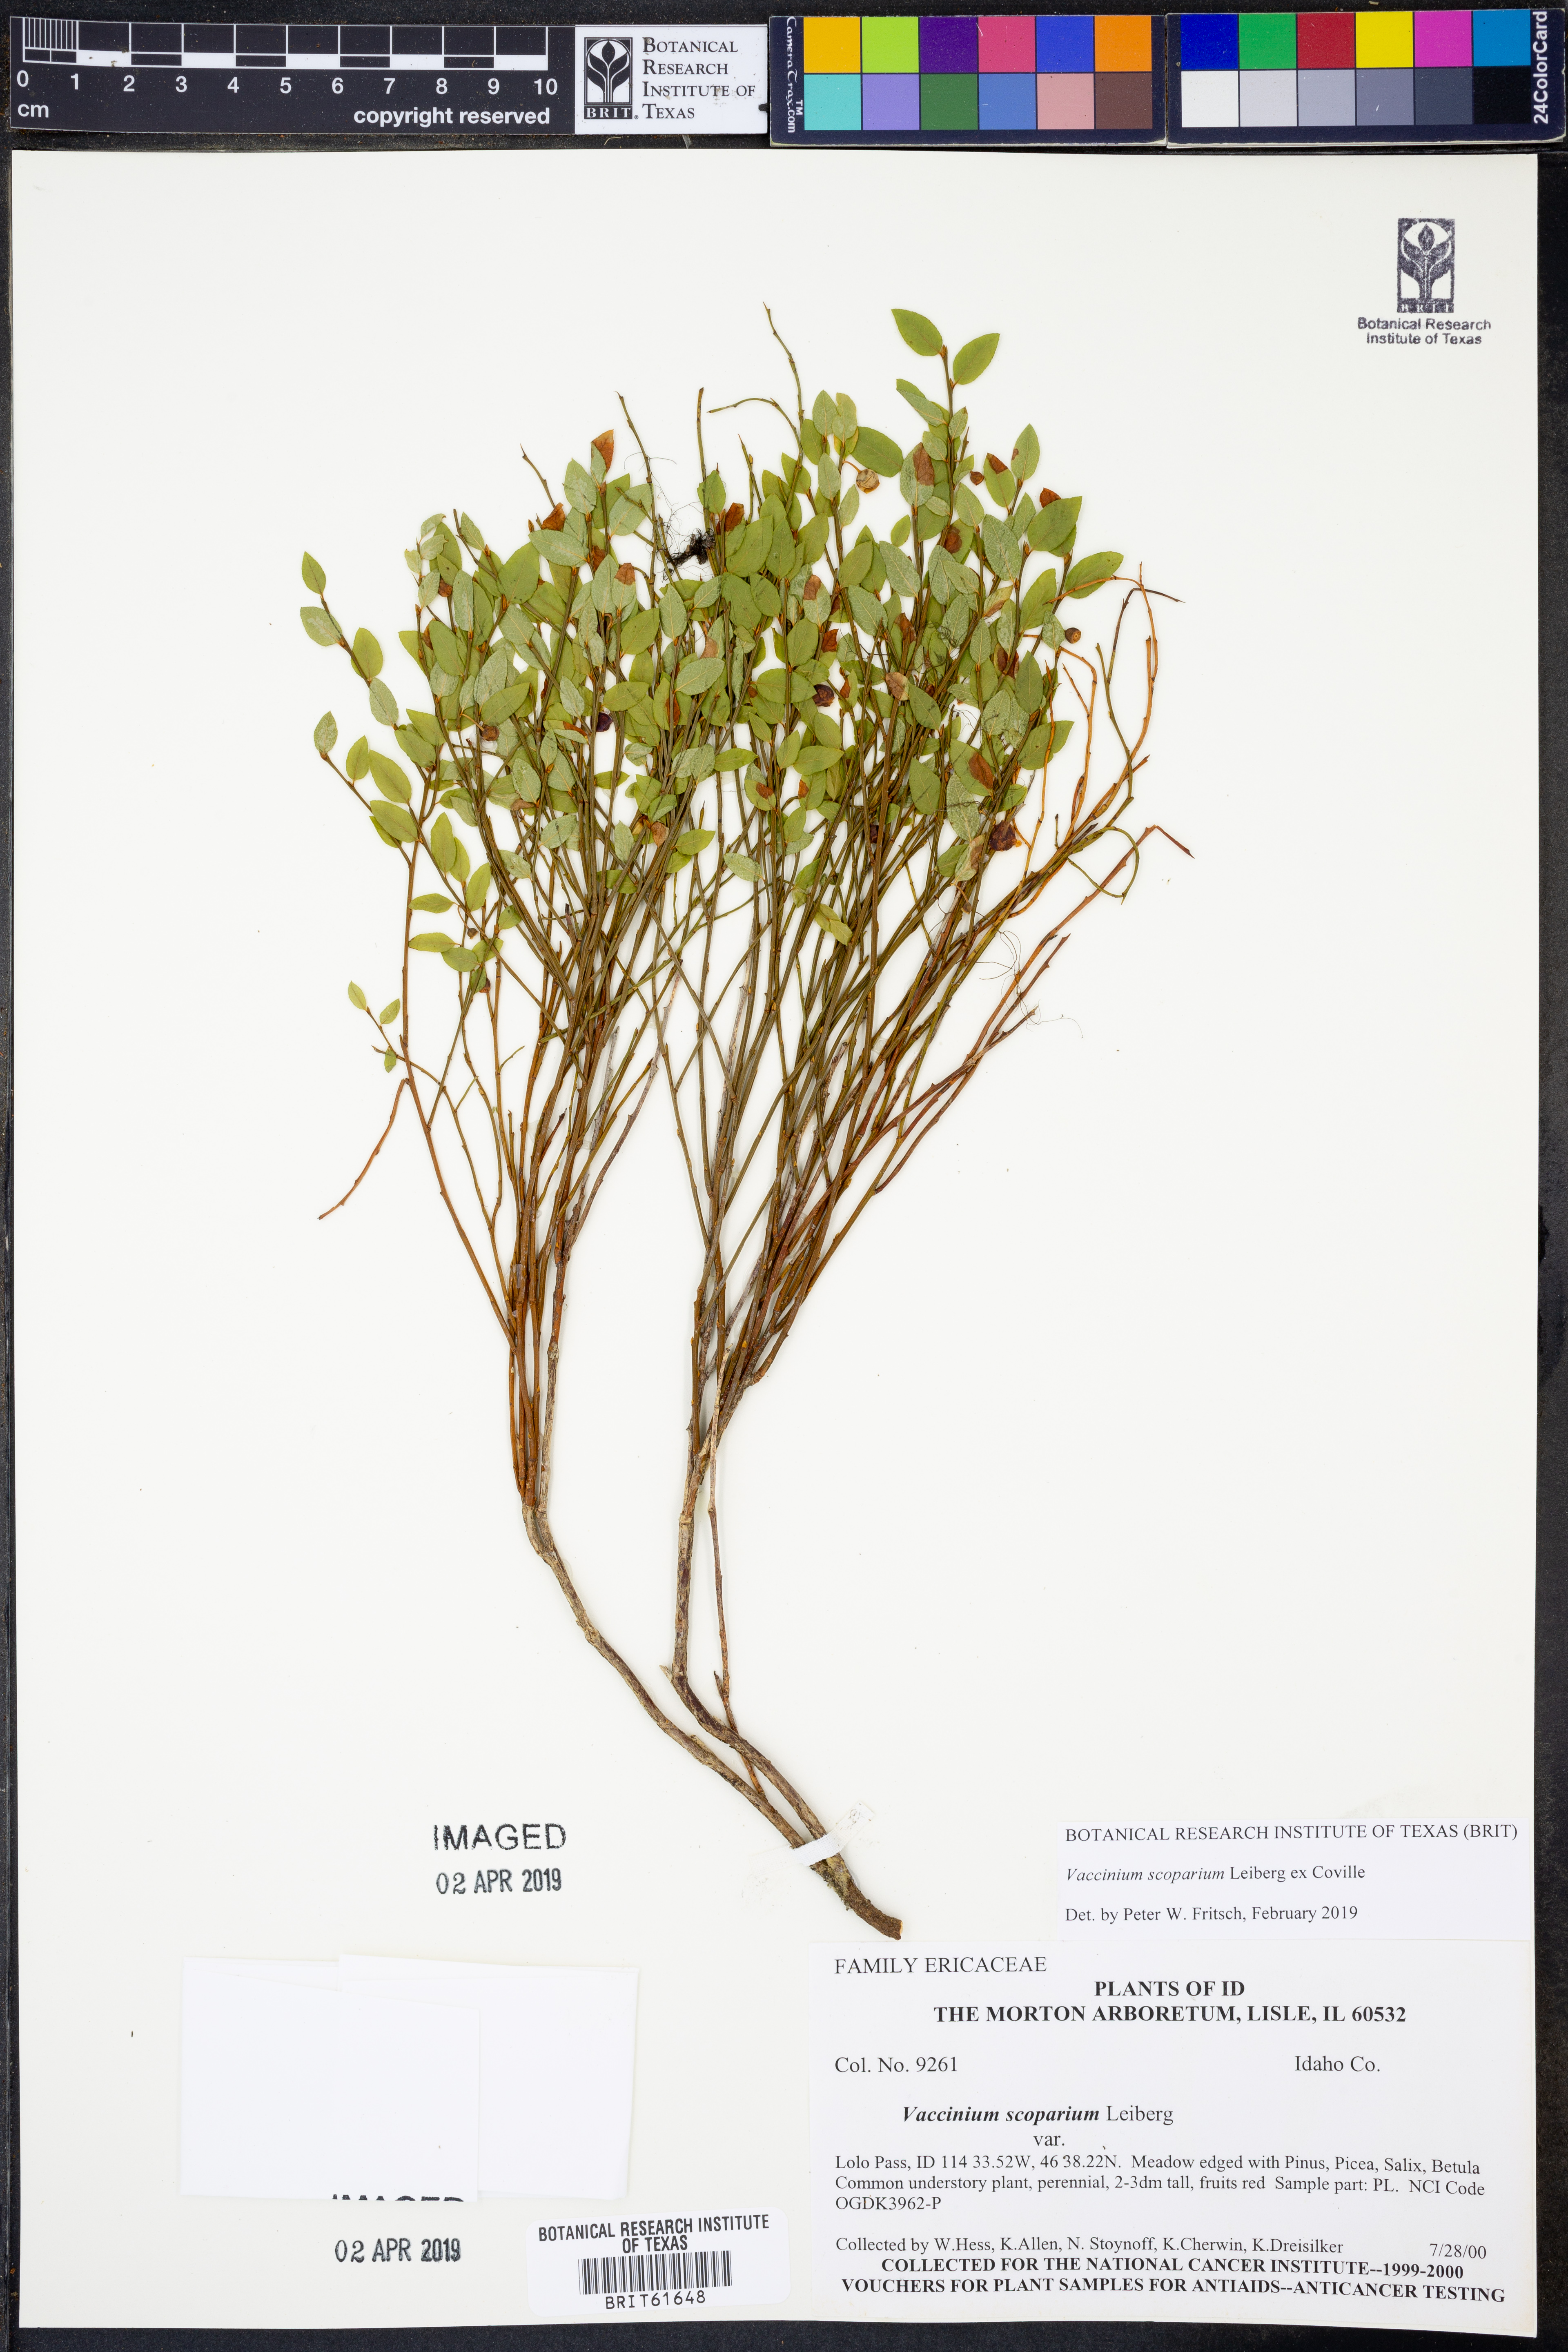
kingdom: Plantae
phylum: Tracheophyta
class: Magnoliopsida
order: Ericales
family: Ericaceae
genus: Vaccinium
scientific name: Vaccinium scoparium
